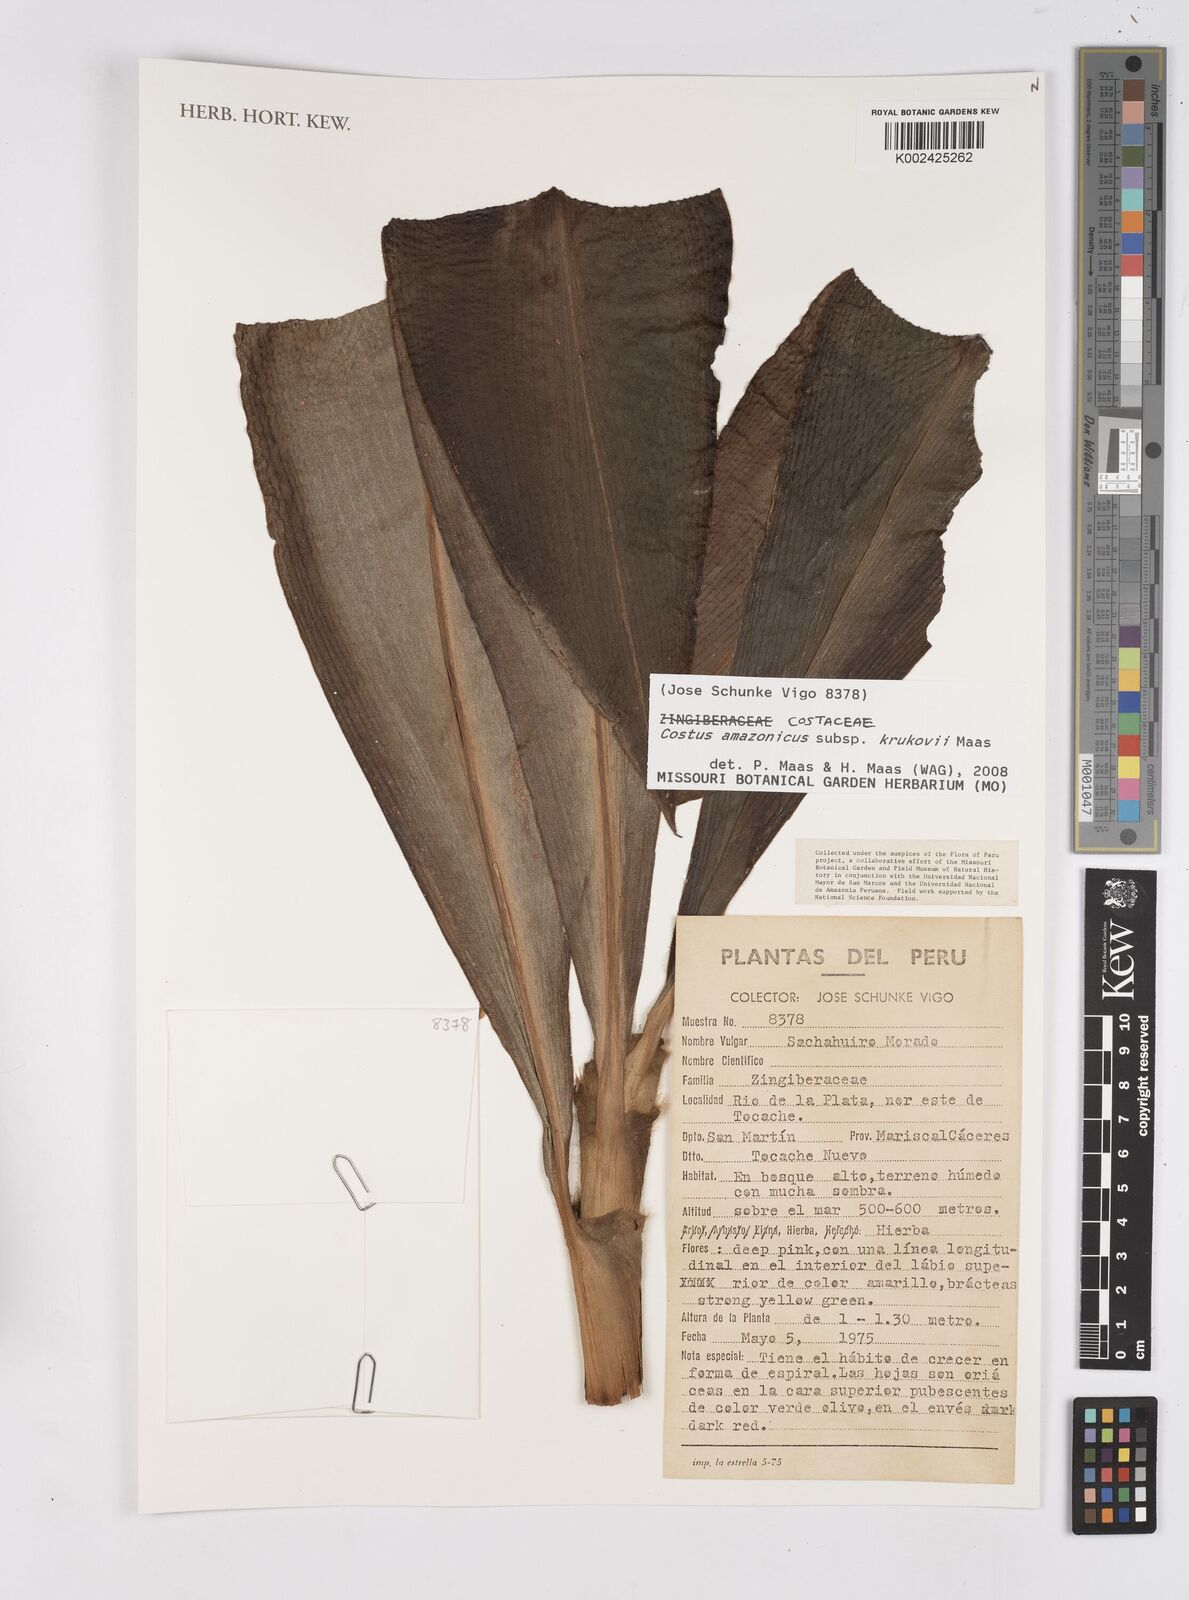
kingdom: Plantae
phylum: Tracheophyta
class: Liliopsida
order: Zingiberales
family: Costaceae
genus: Costus
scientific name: Costus amazonicus
